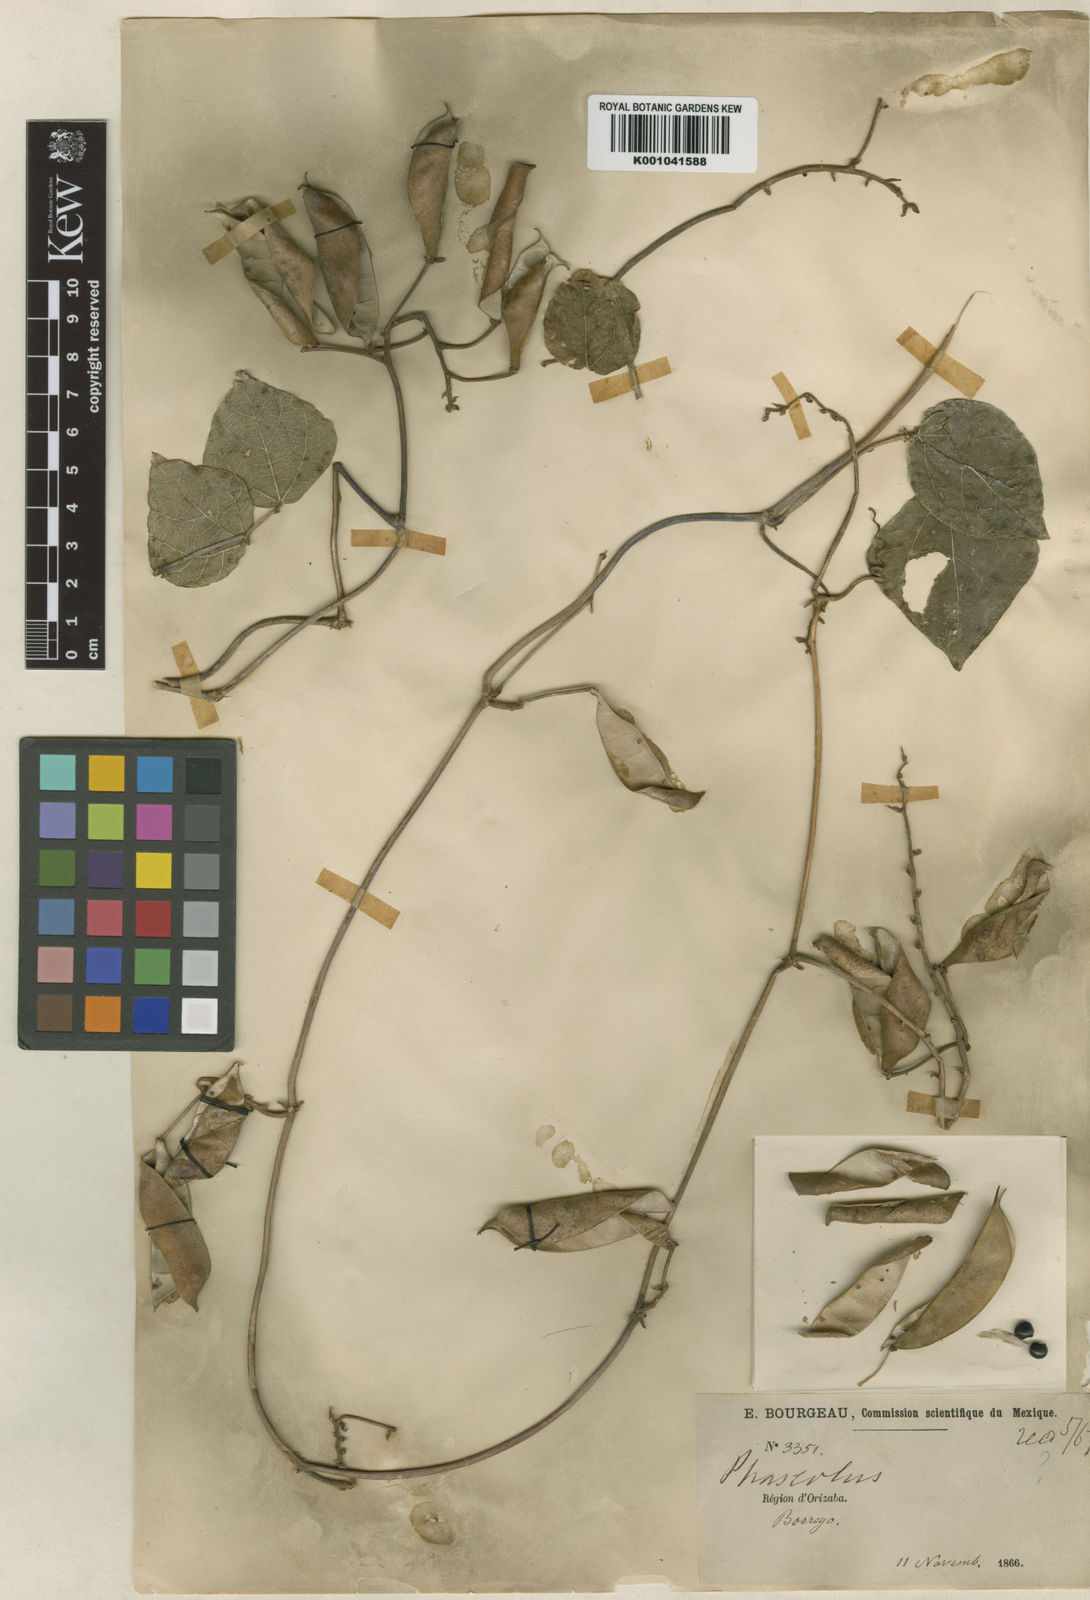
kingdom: Plantae
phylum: Tracheophyta
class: Magnoliopsida
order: Fabales
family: Fabaceae
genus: Phaseolus
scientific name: Phaseolus
